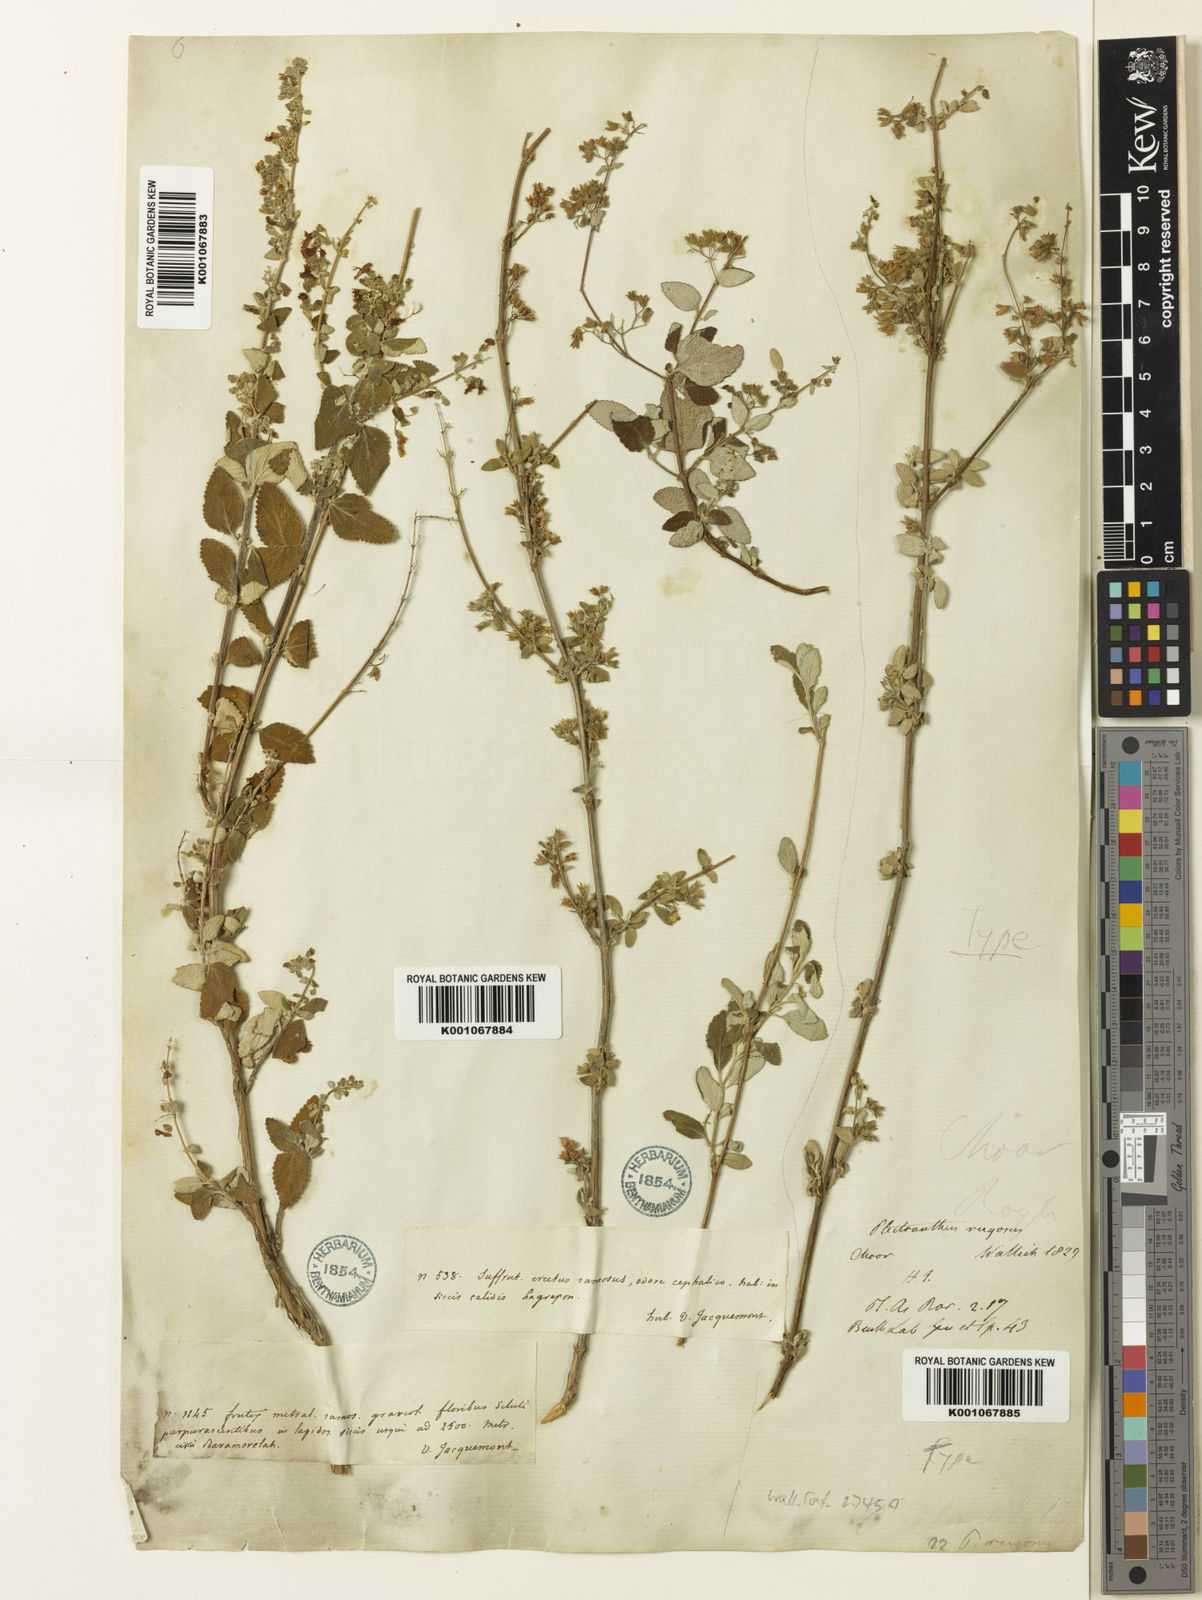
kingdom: Plantae
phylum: Tracheophyta
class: Magnoliopsida
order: Lamiales
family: Lamiaceae
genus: Isodon
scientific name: Isodon rugosus
